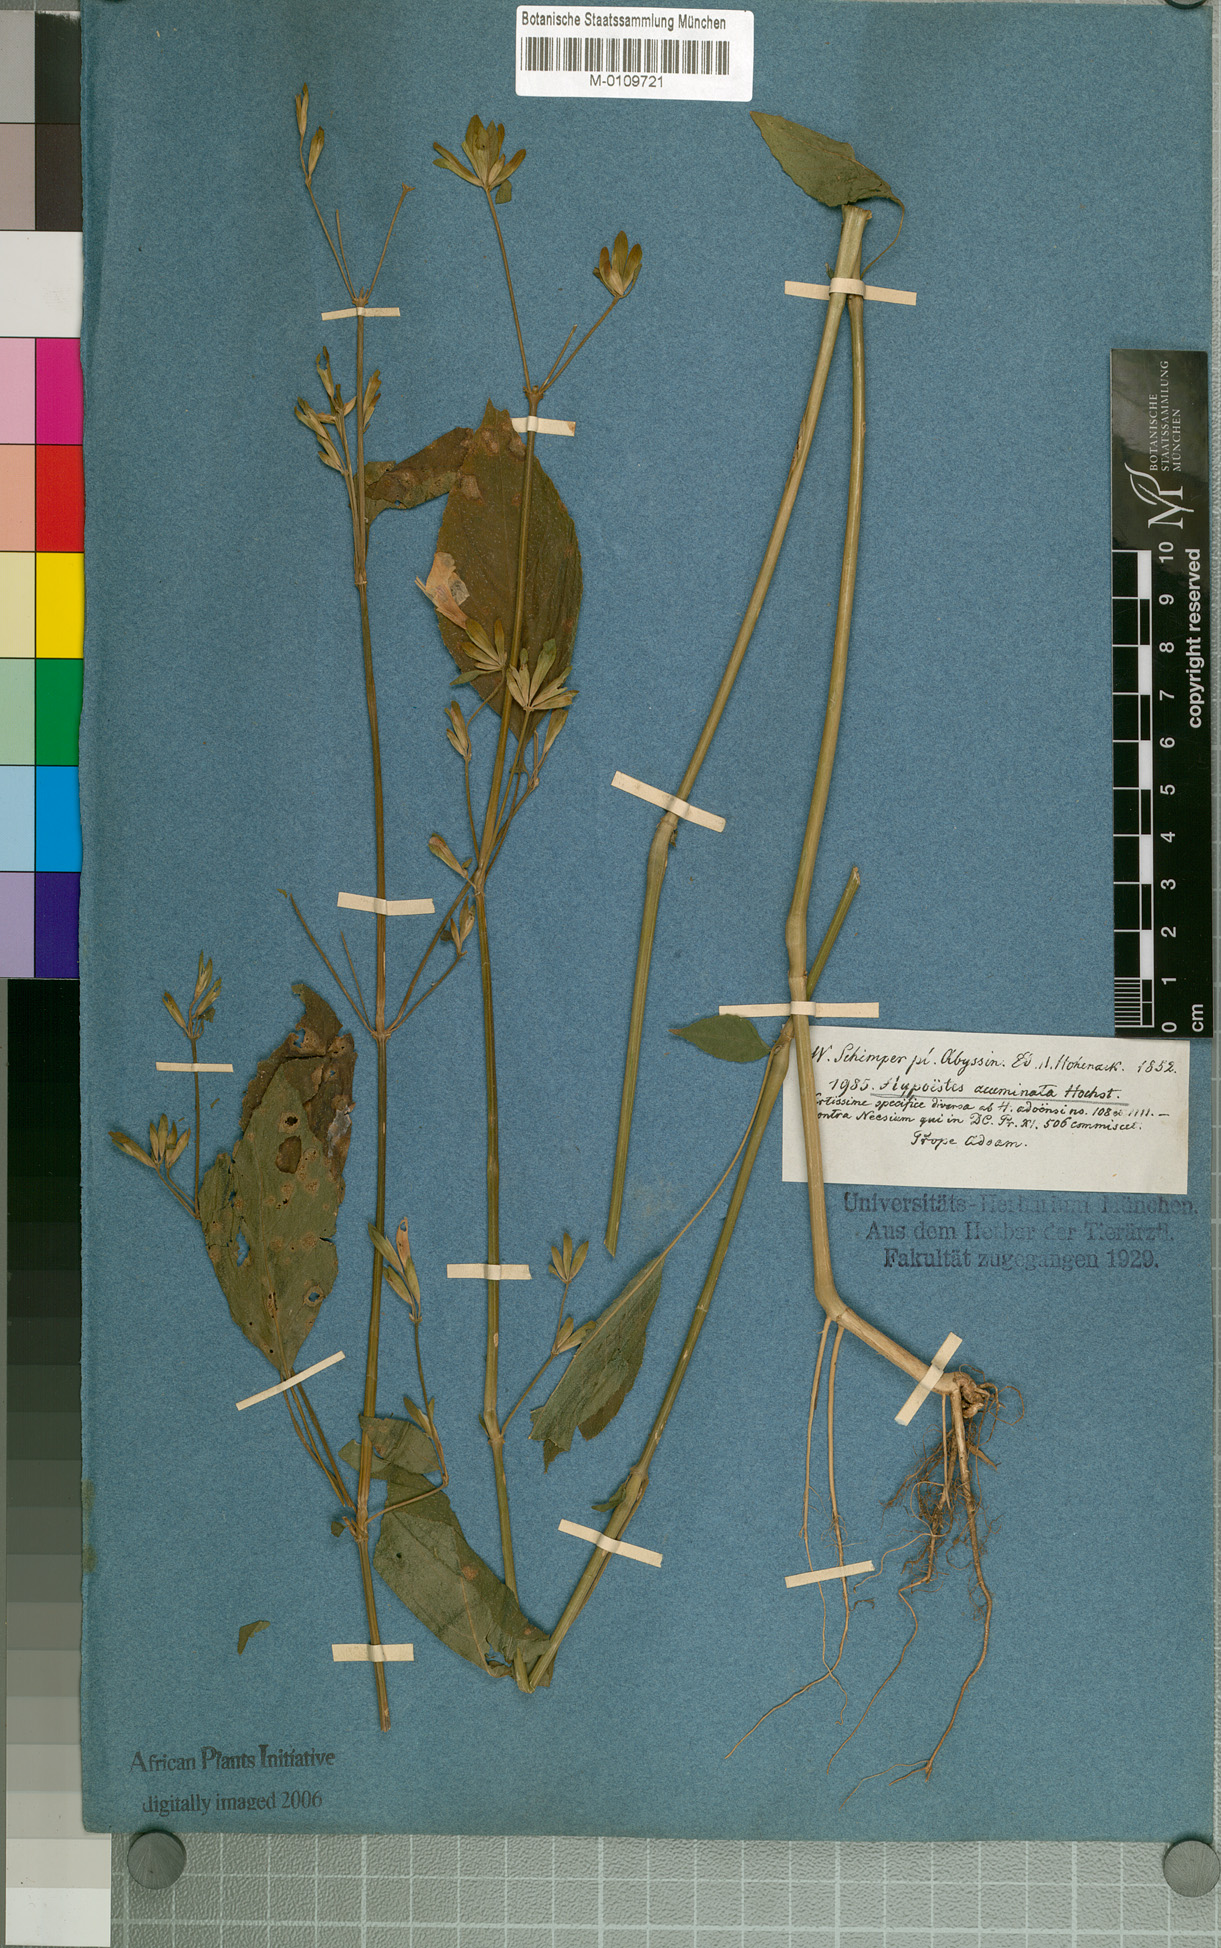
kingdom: Plantae
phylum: Tracheophyta
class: Magnoliopsida
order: Lamiales
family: Acanthaceae
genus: Hypoestes
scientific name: Hypoestes triflora
